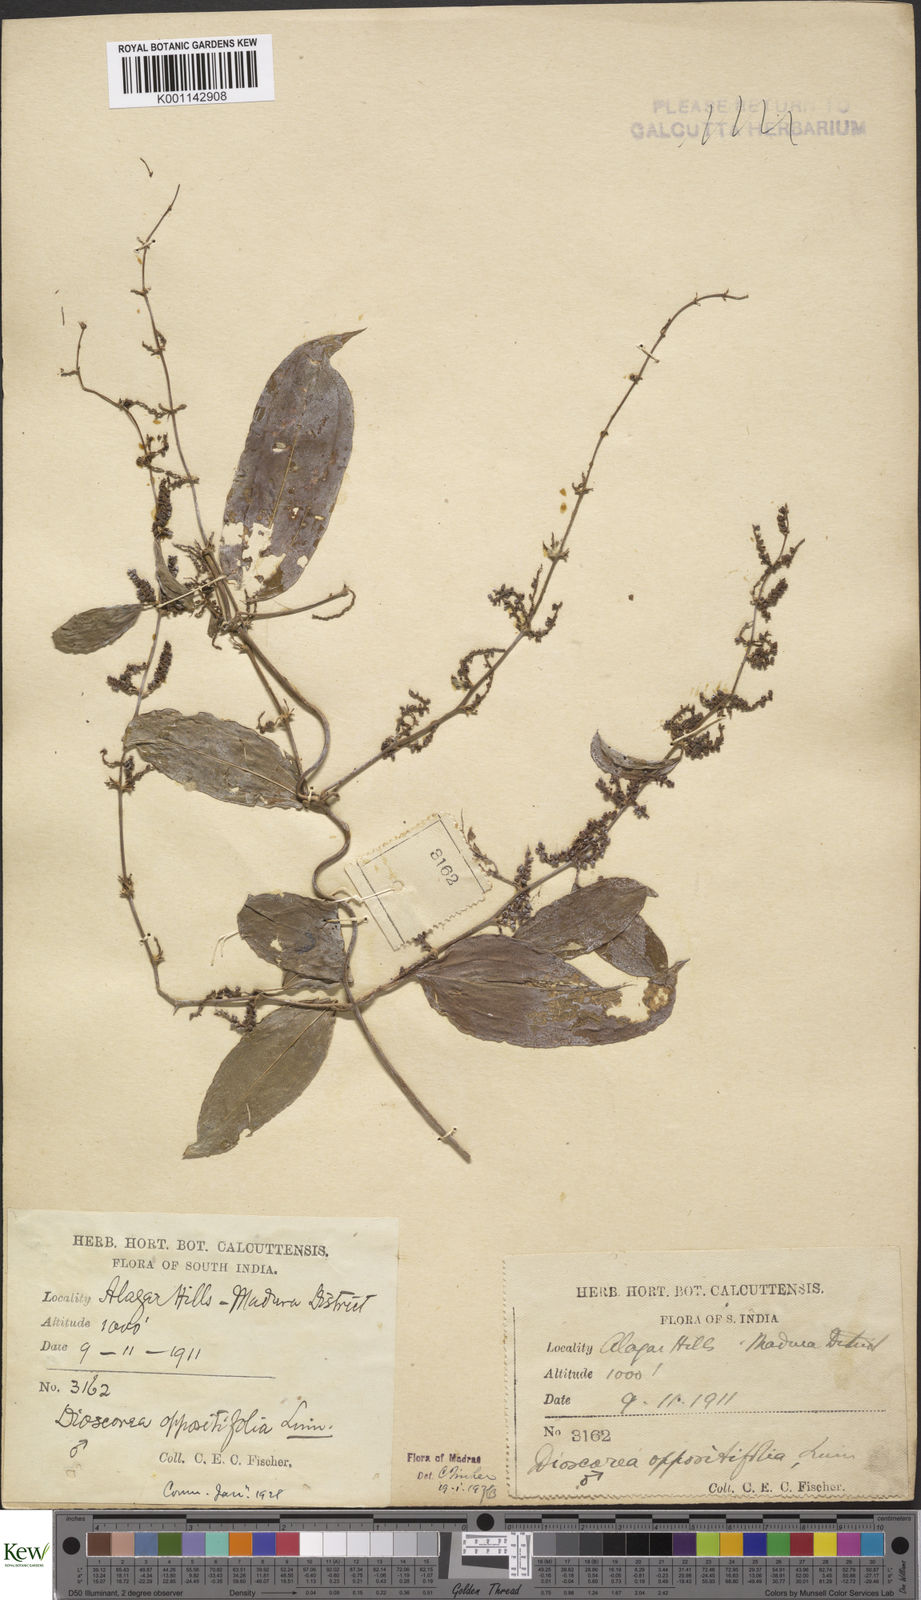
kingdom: Plantae
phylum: Tracheophyta
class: Liliopsida
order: Dioscoreales
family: Dioscoreaceae
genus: Dioscorea
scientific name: Dioscorea oppositifolia
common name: Chinese yam
